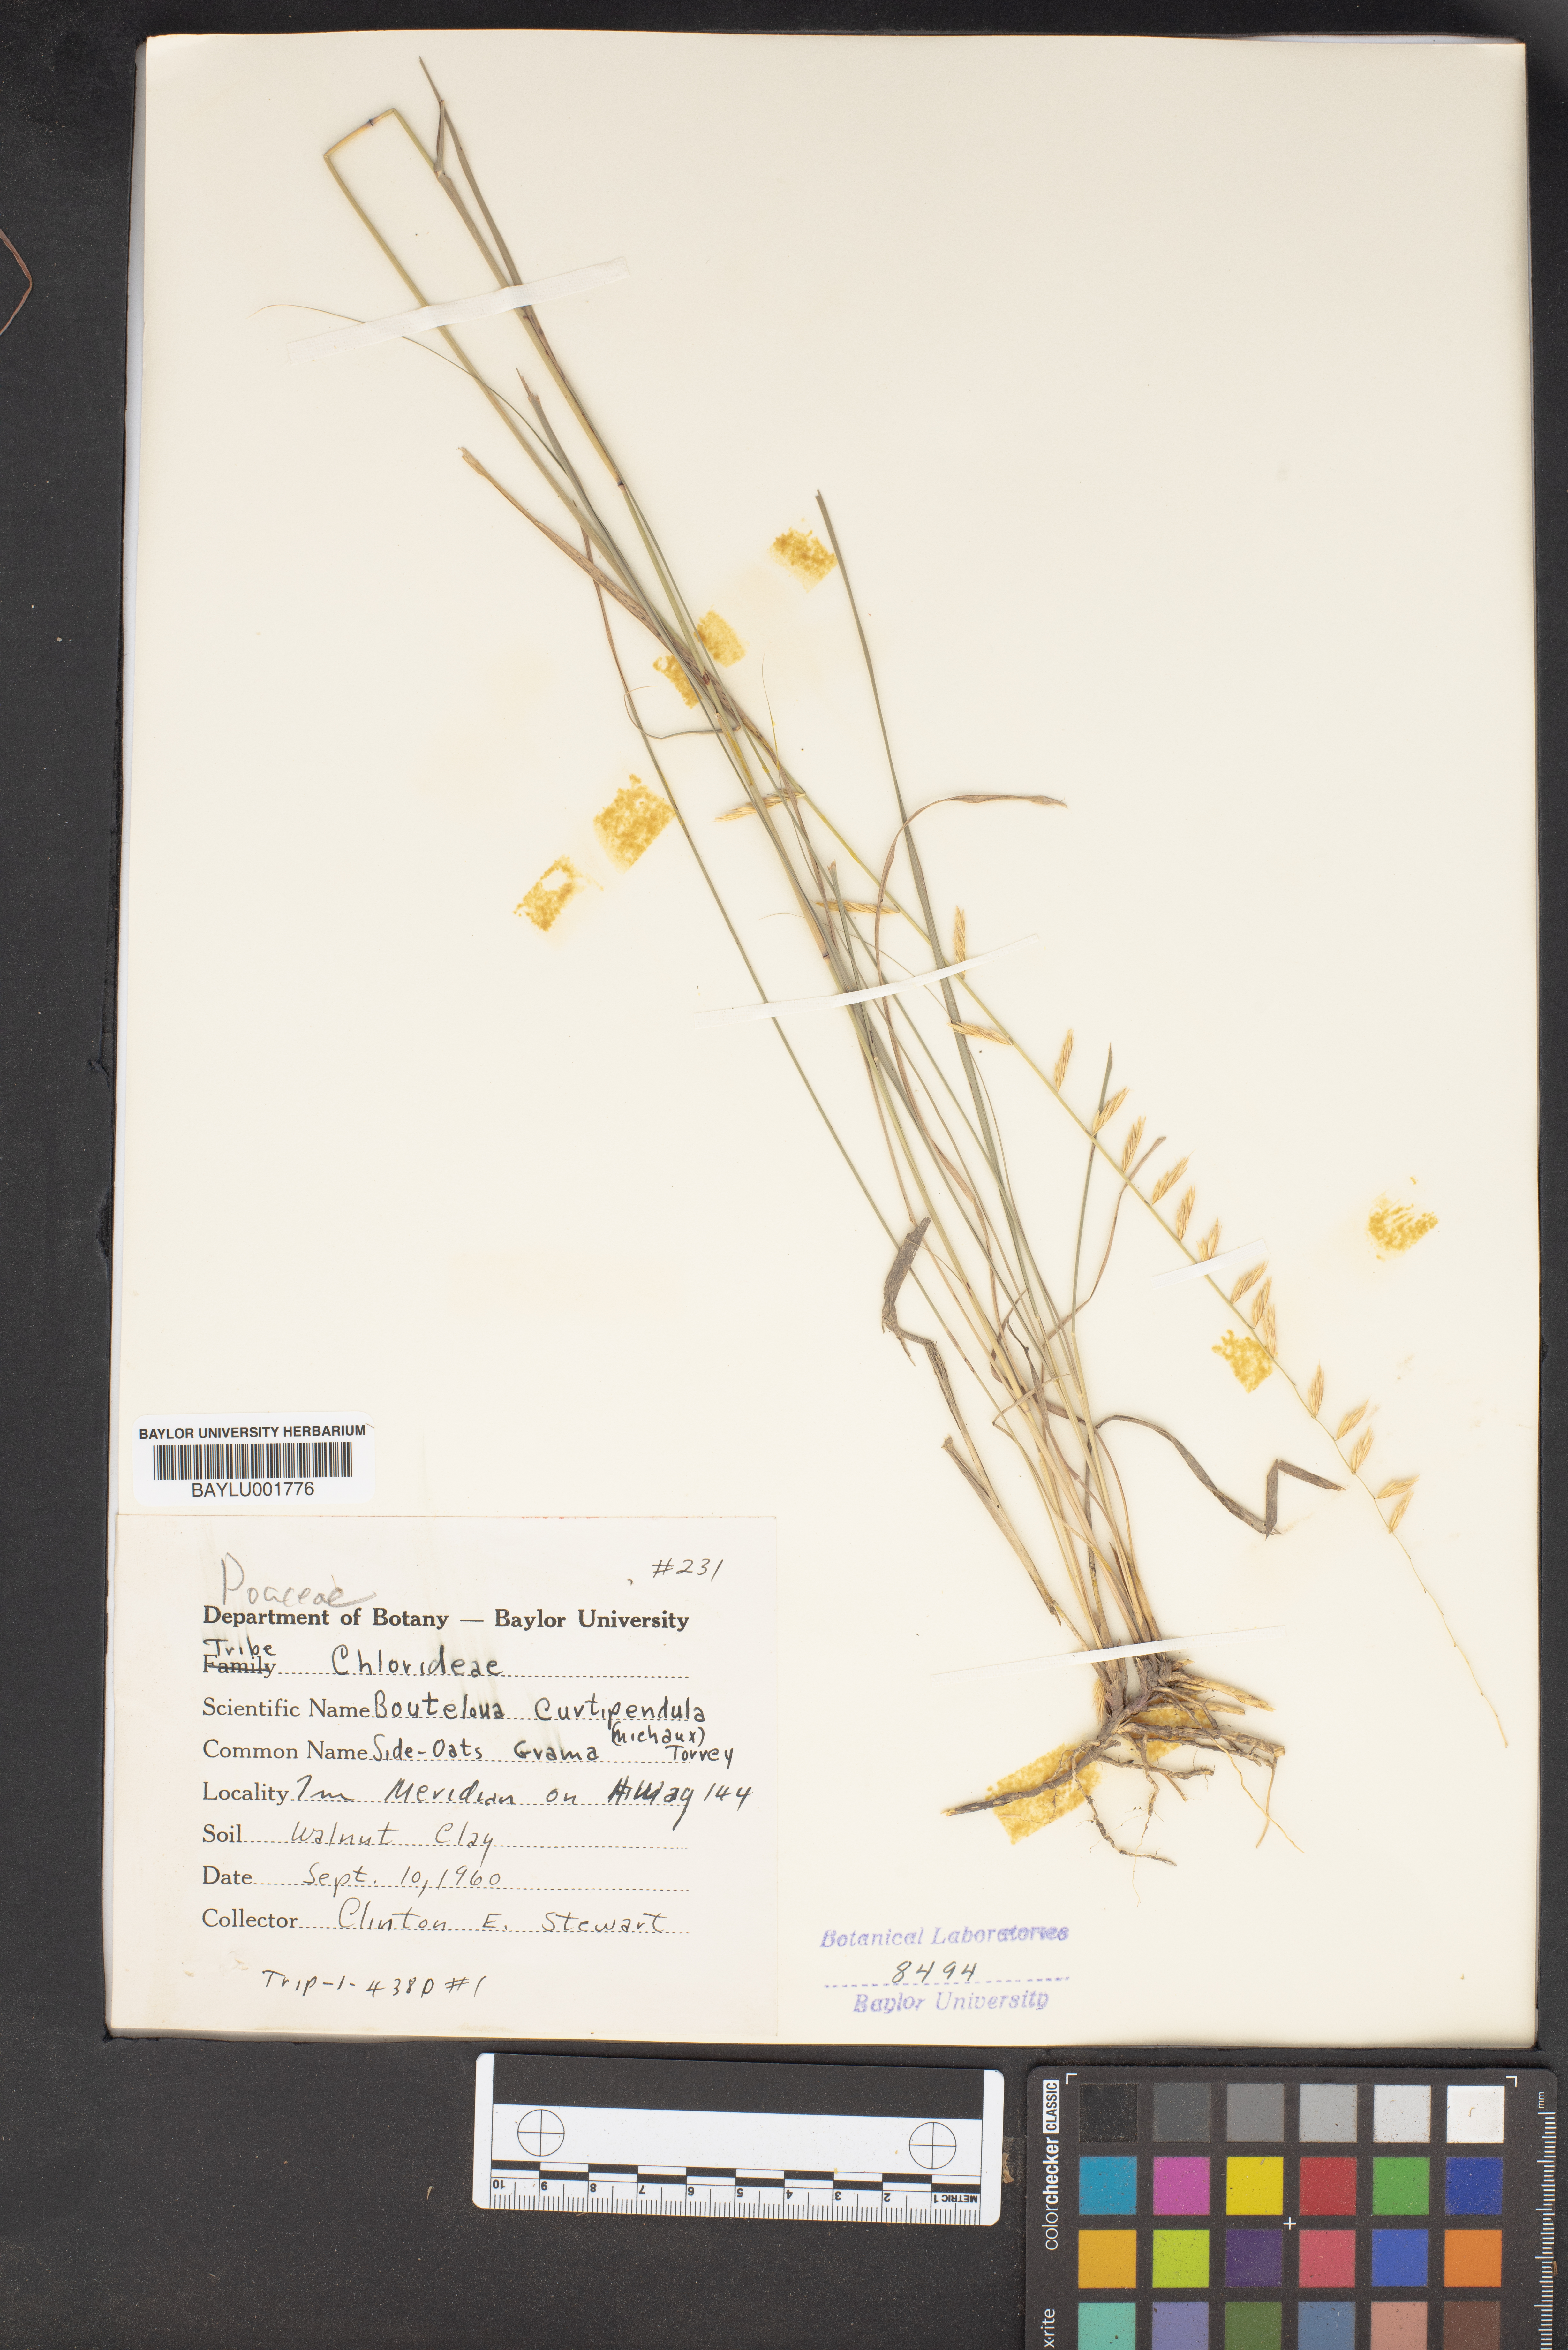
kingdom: Plantae
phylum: Tracheophyta
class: Liliopsida
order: Poales
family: Poaceae
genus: Bouteloua
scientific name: Bouteloua curtipendula
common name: Side-oats grama
